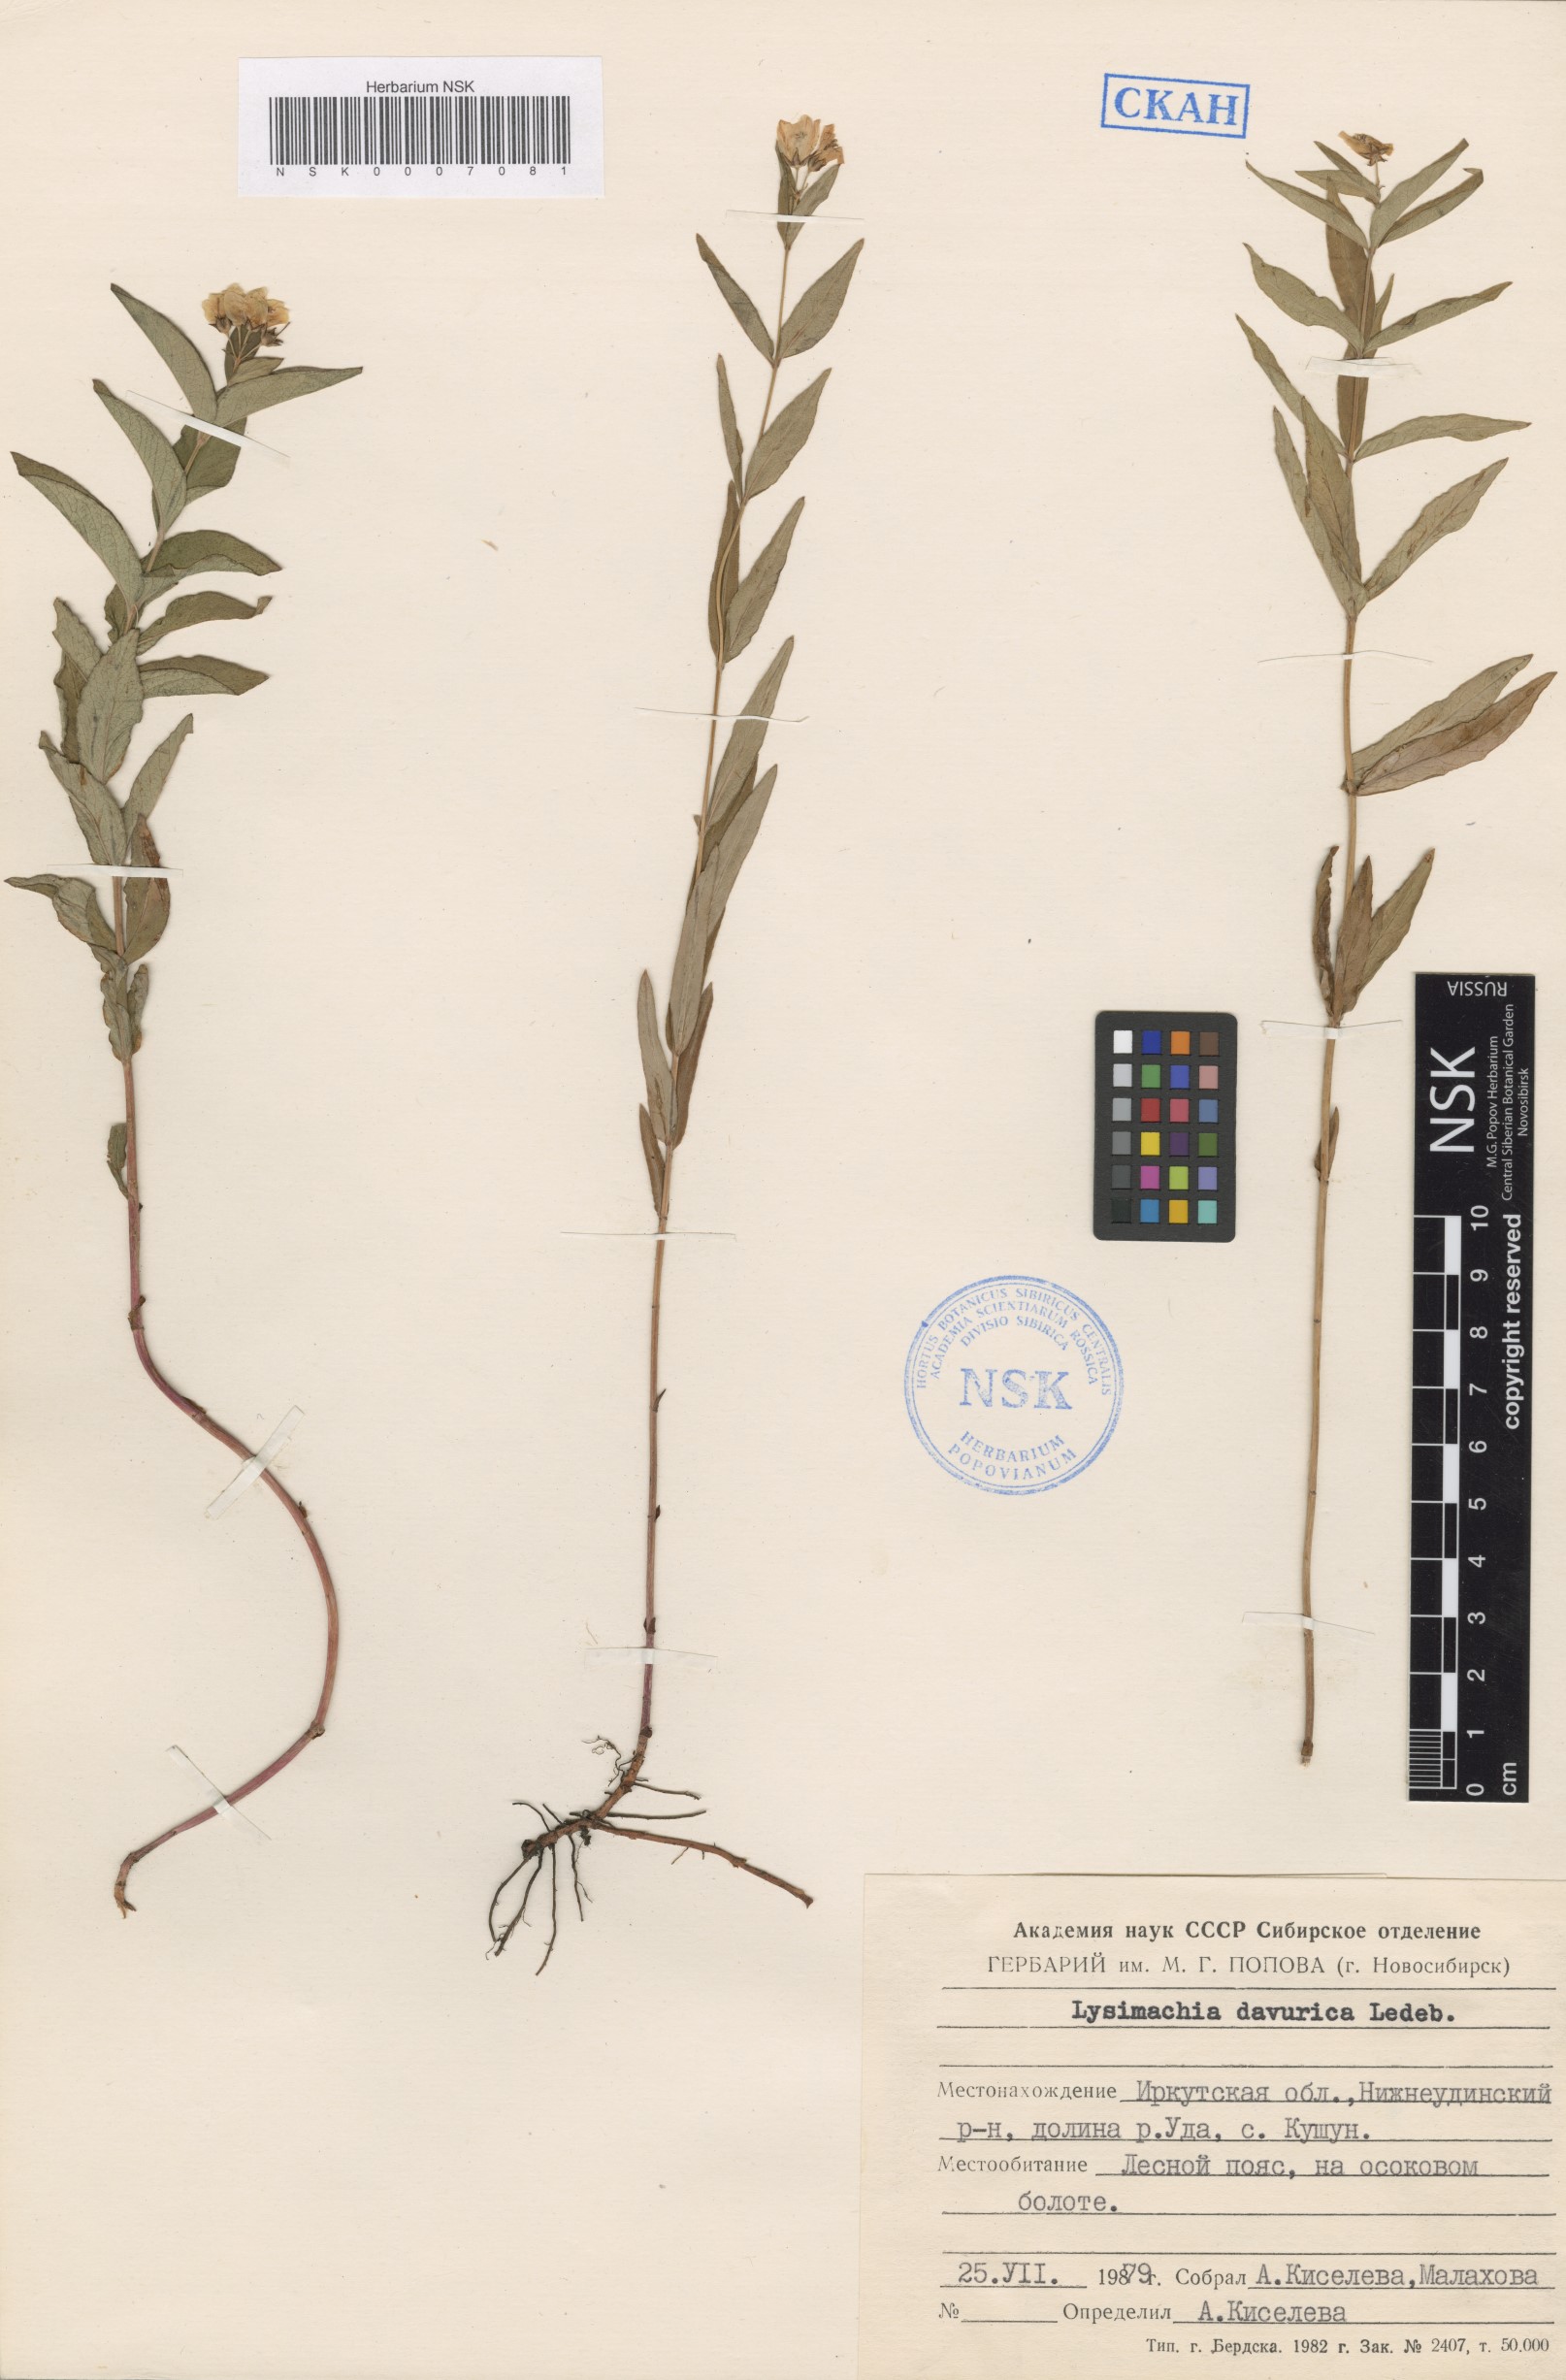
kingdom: Plantae
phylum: Tracheophyta
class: Magnoliopsida
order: Ericales
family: Primulaceae
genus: Lysimachia
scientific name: Lysimachia davurica
